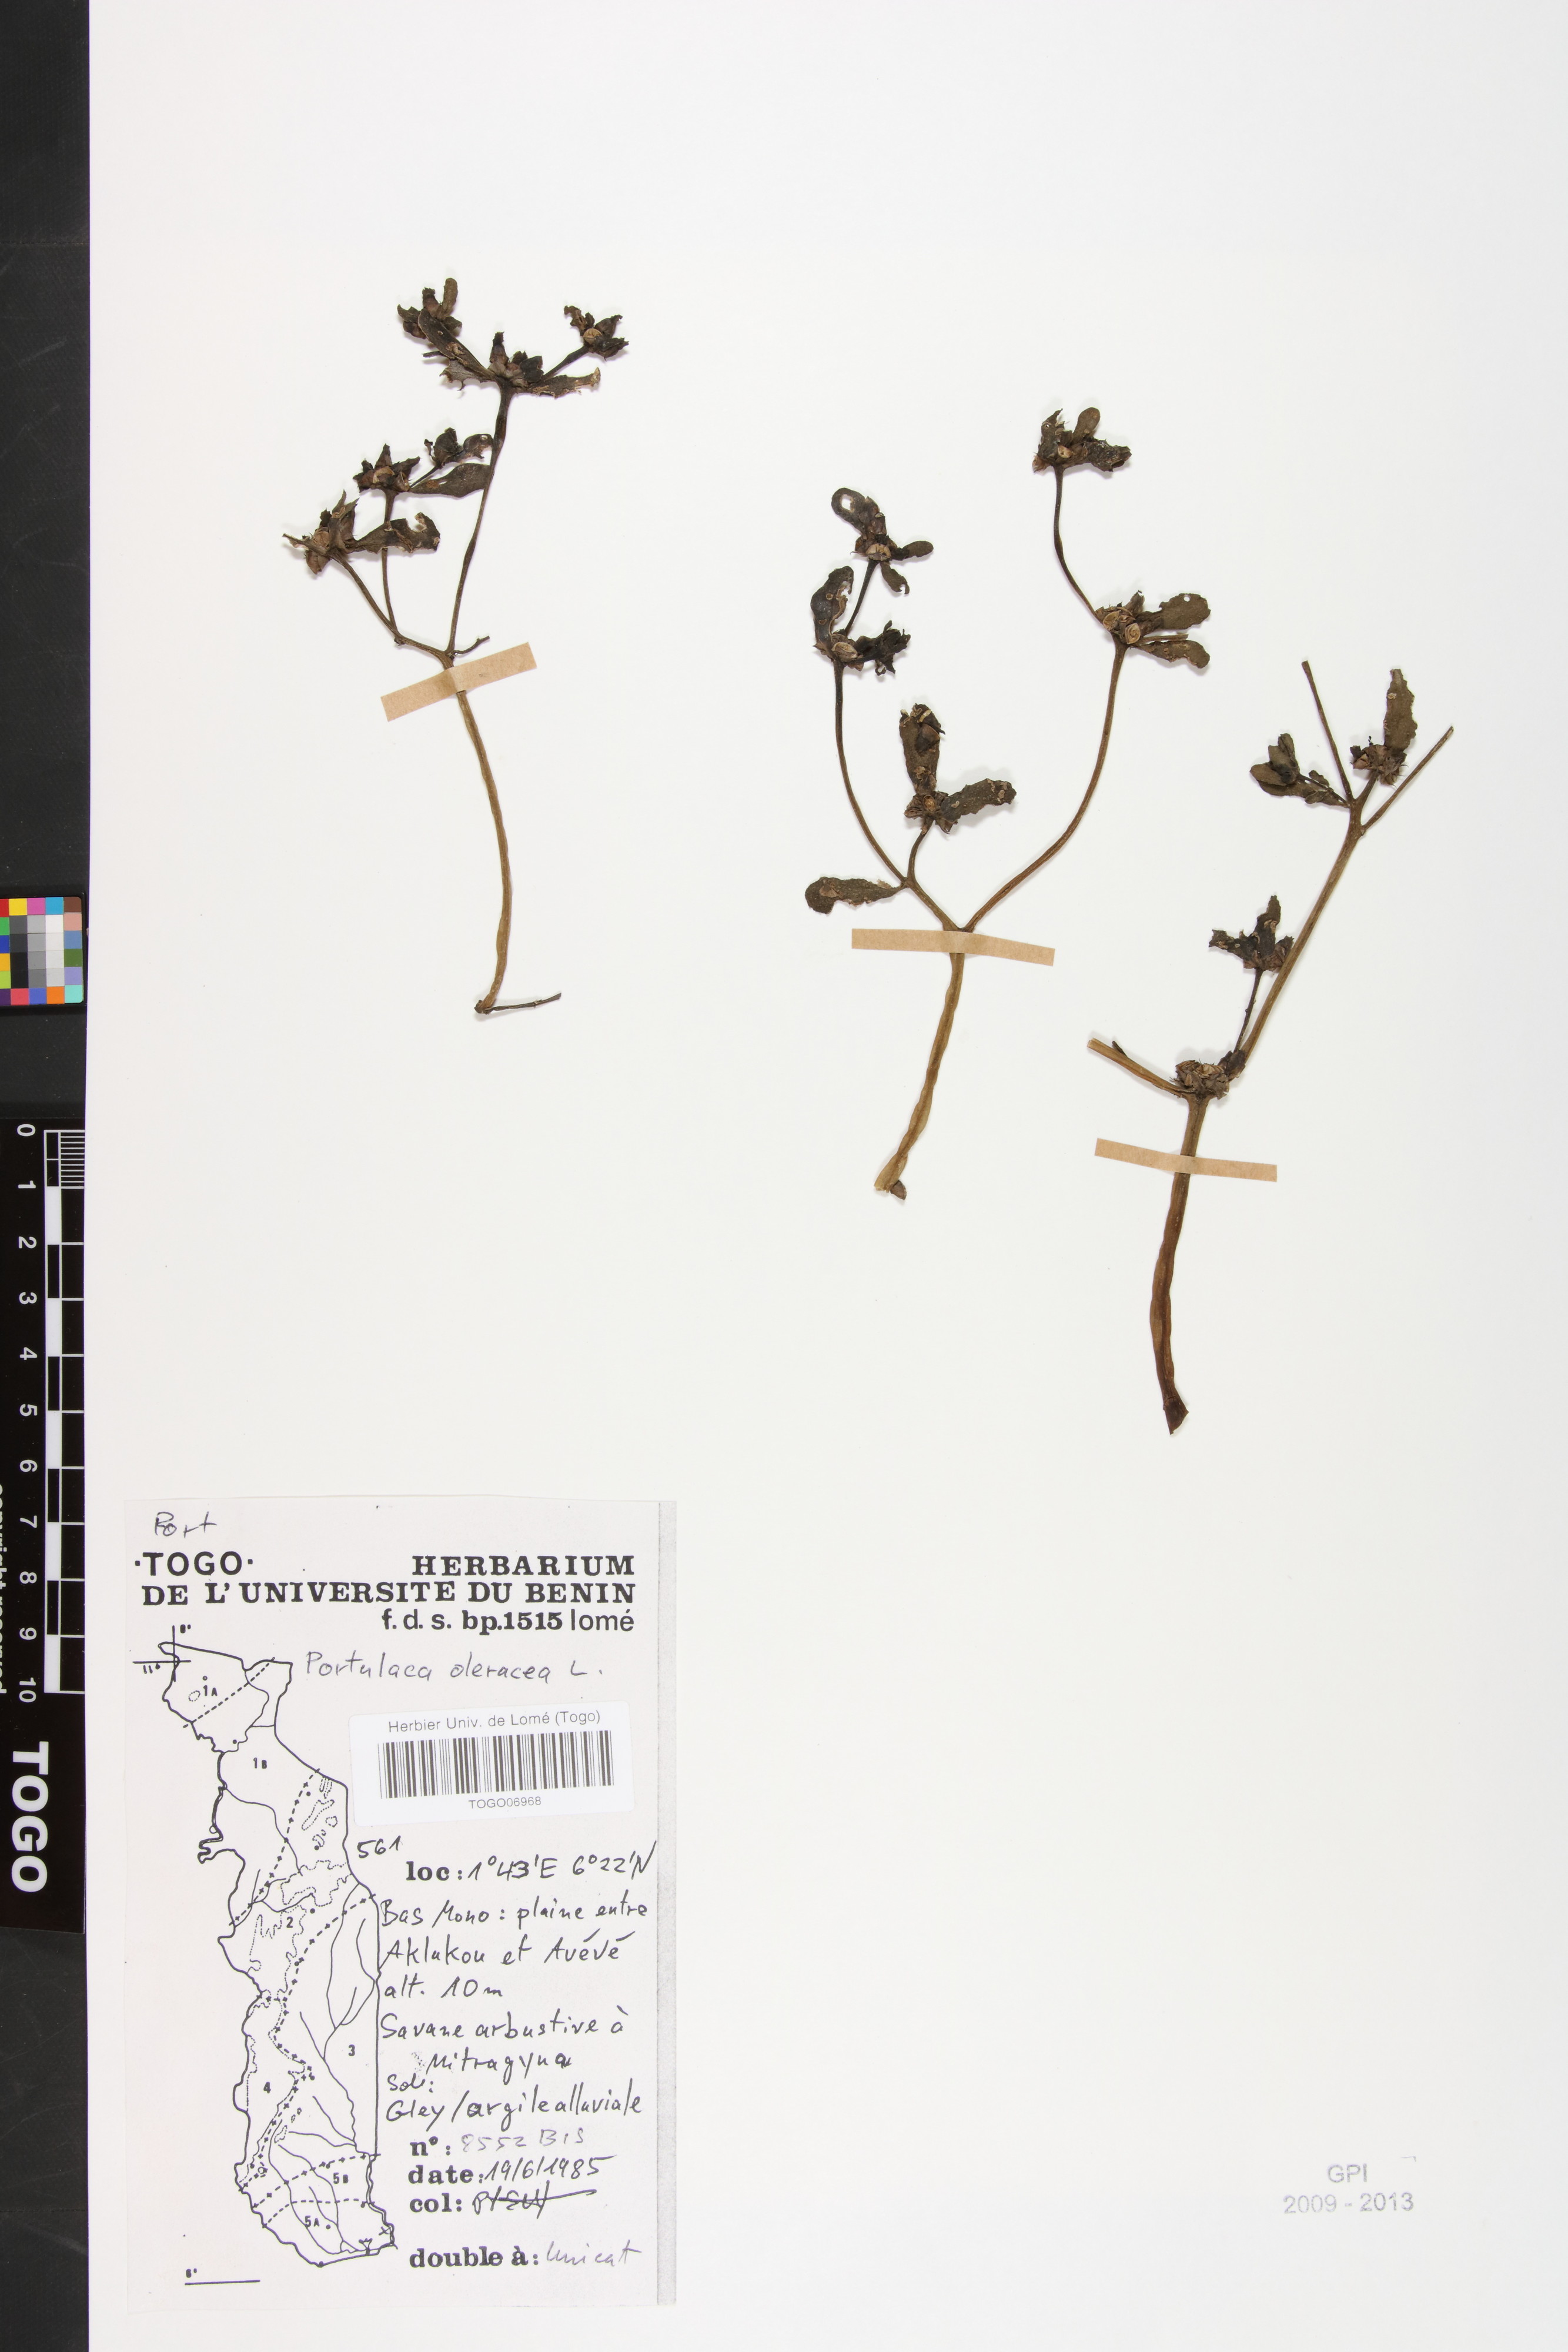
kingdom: Plantae
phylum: Tracheophyta
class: Magnoliopsida
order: Caryophyllales
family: Portulacaceae
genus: Portulaca
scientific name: Portulaca oleracea
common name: Common purslane
